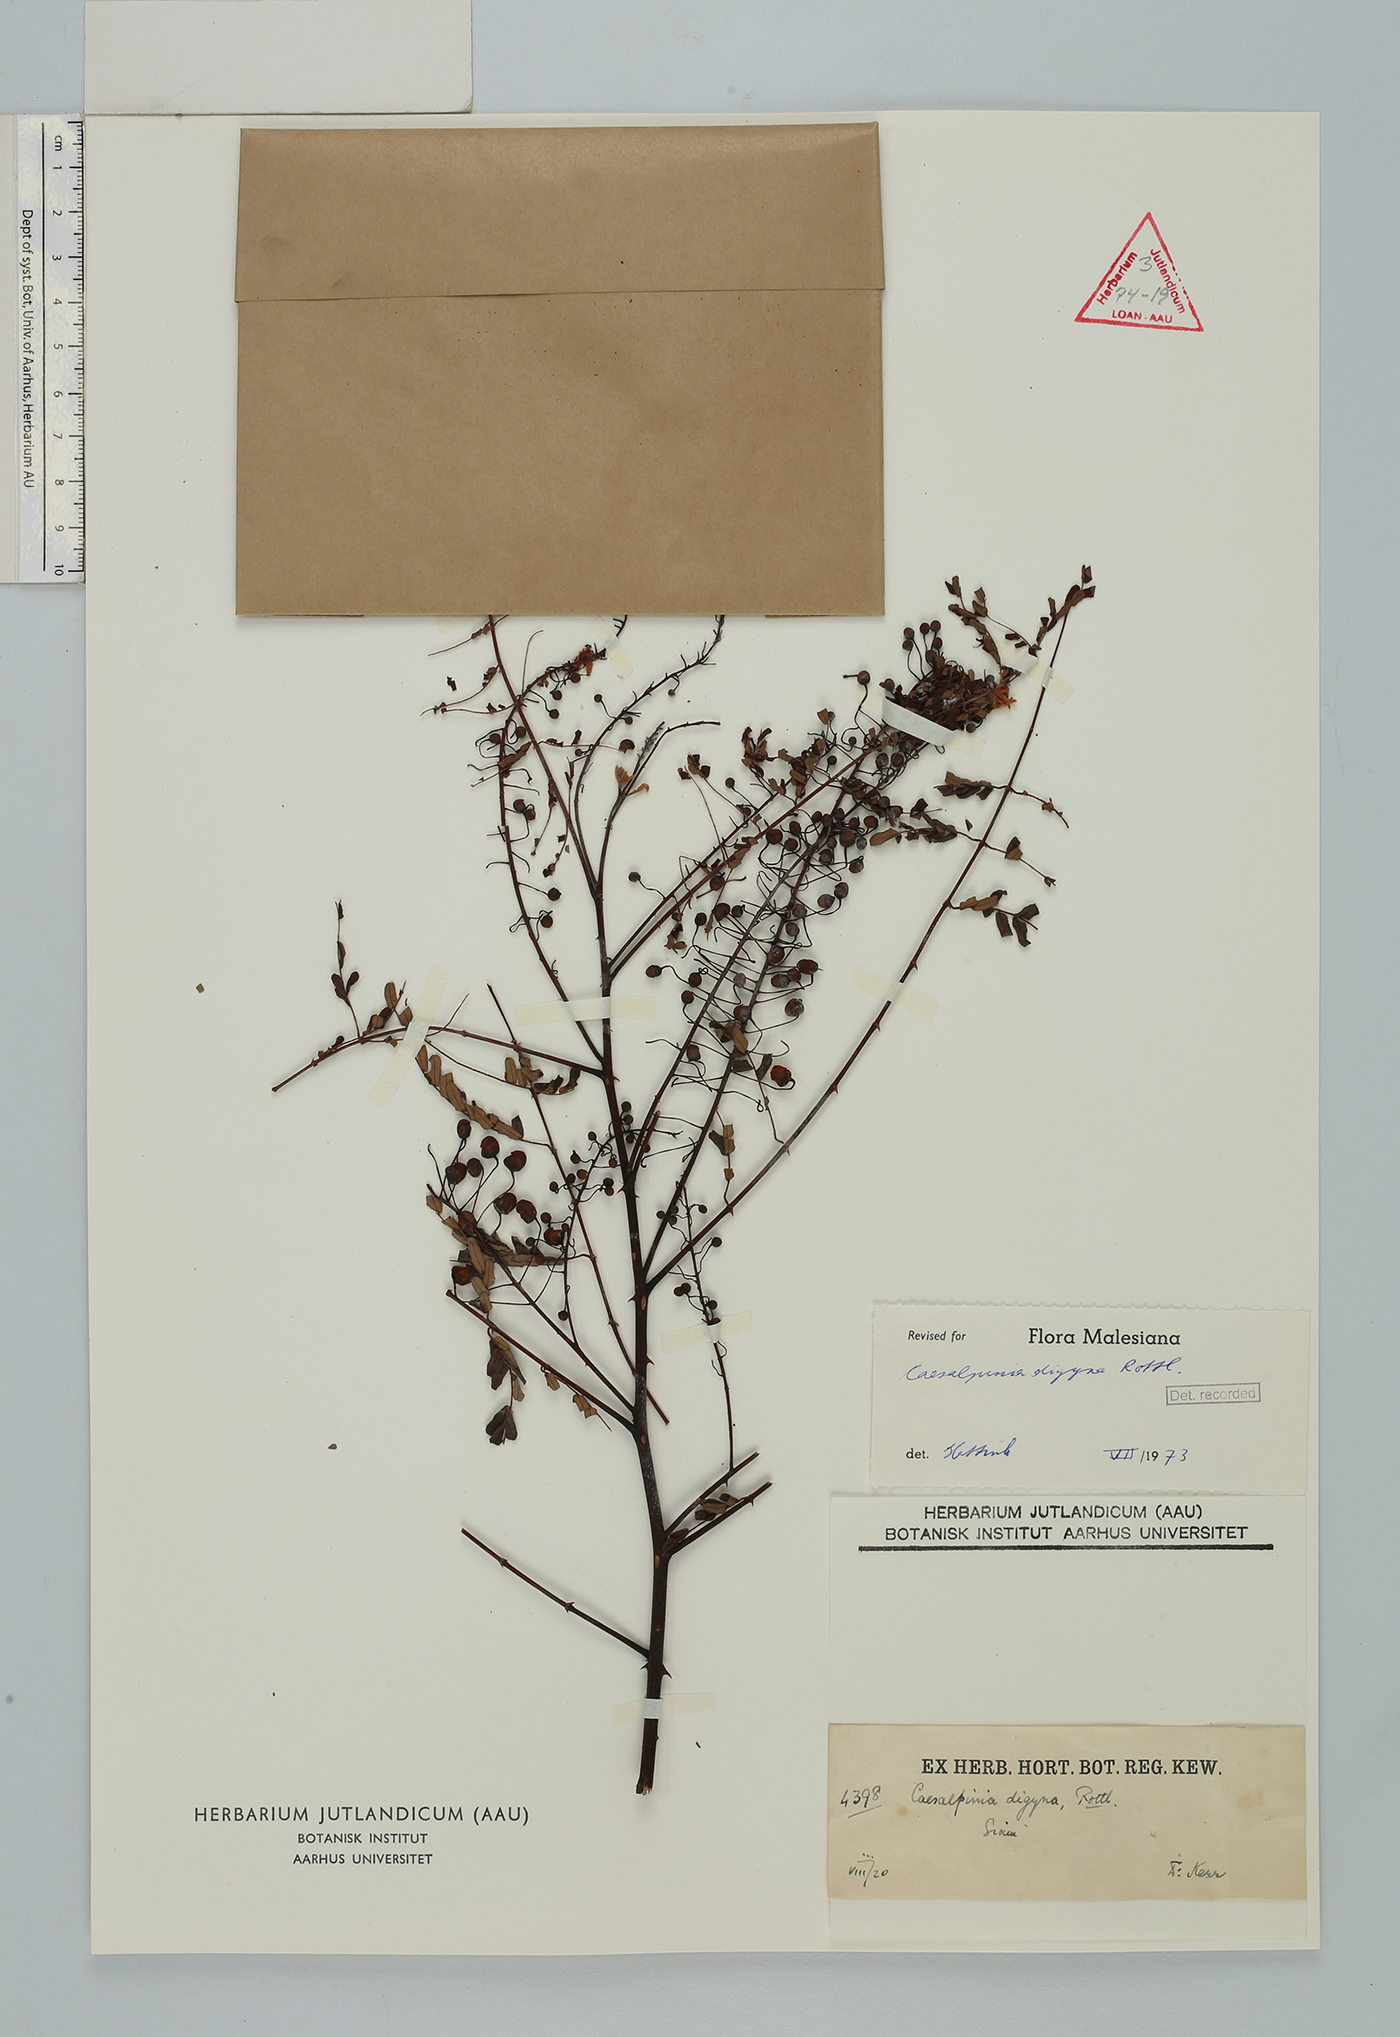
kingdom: Plantae
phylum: Tracheophyta
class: Magnoliopsida
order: Fabales
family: Fabaceae
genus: Moullava
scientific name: Moullava digyna
